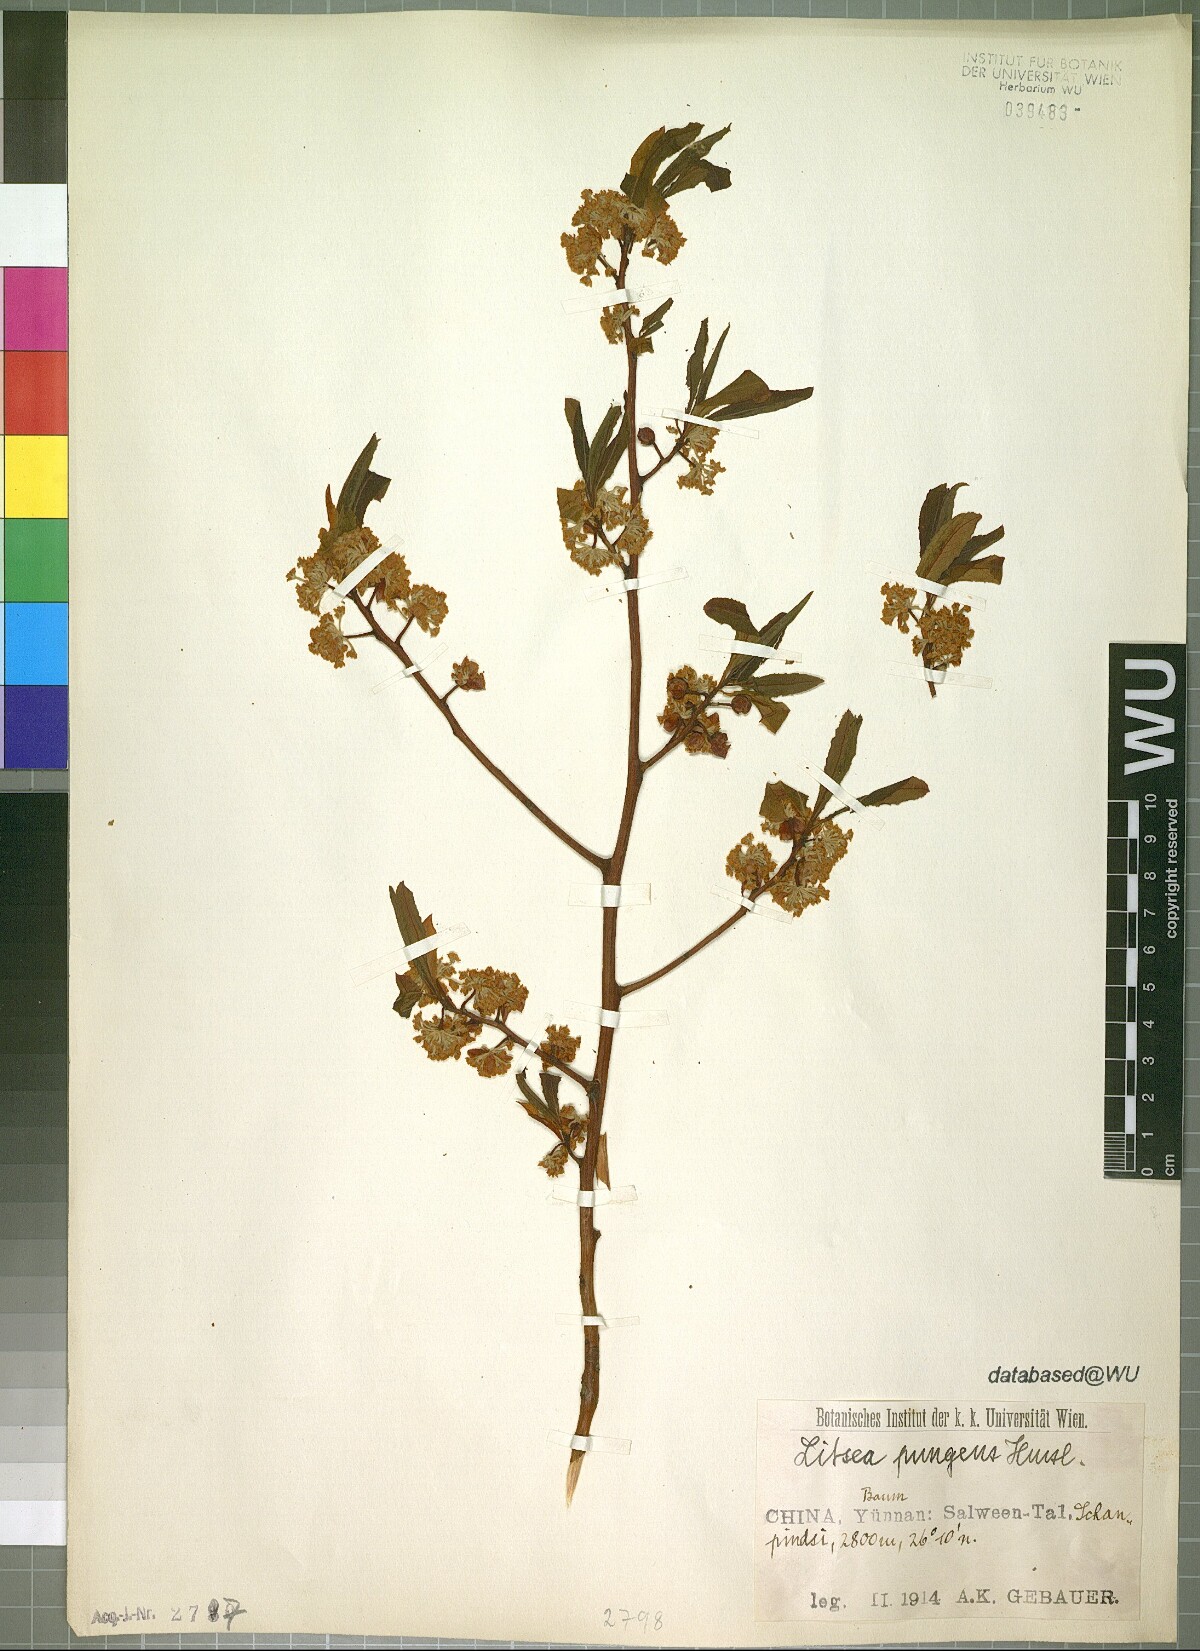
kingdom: Plantae
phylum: Tracheophyta
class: Magnoliopsida
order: Laurales
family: Lauraceae
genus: Litsea
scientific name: Litsea pungens
